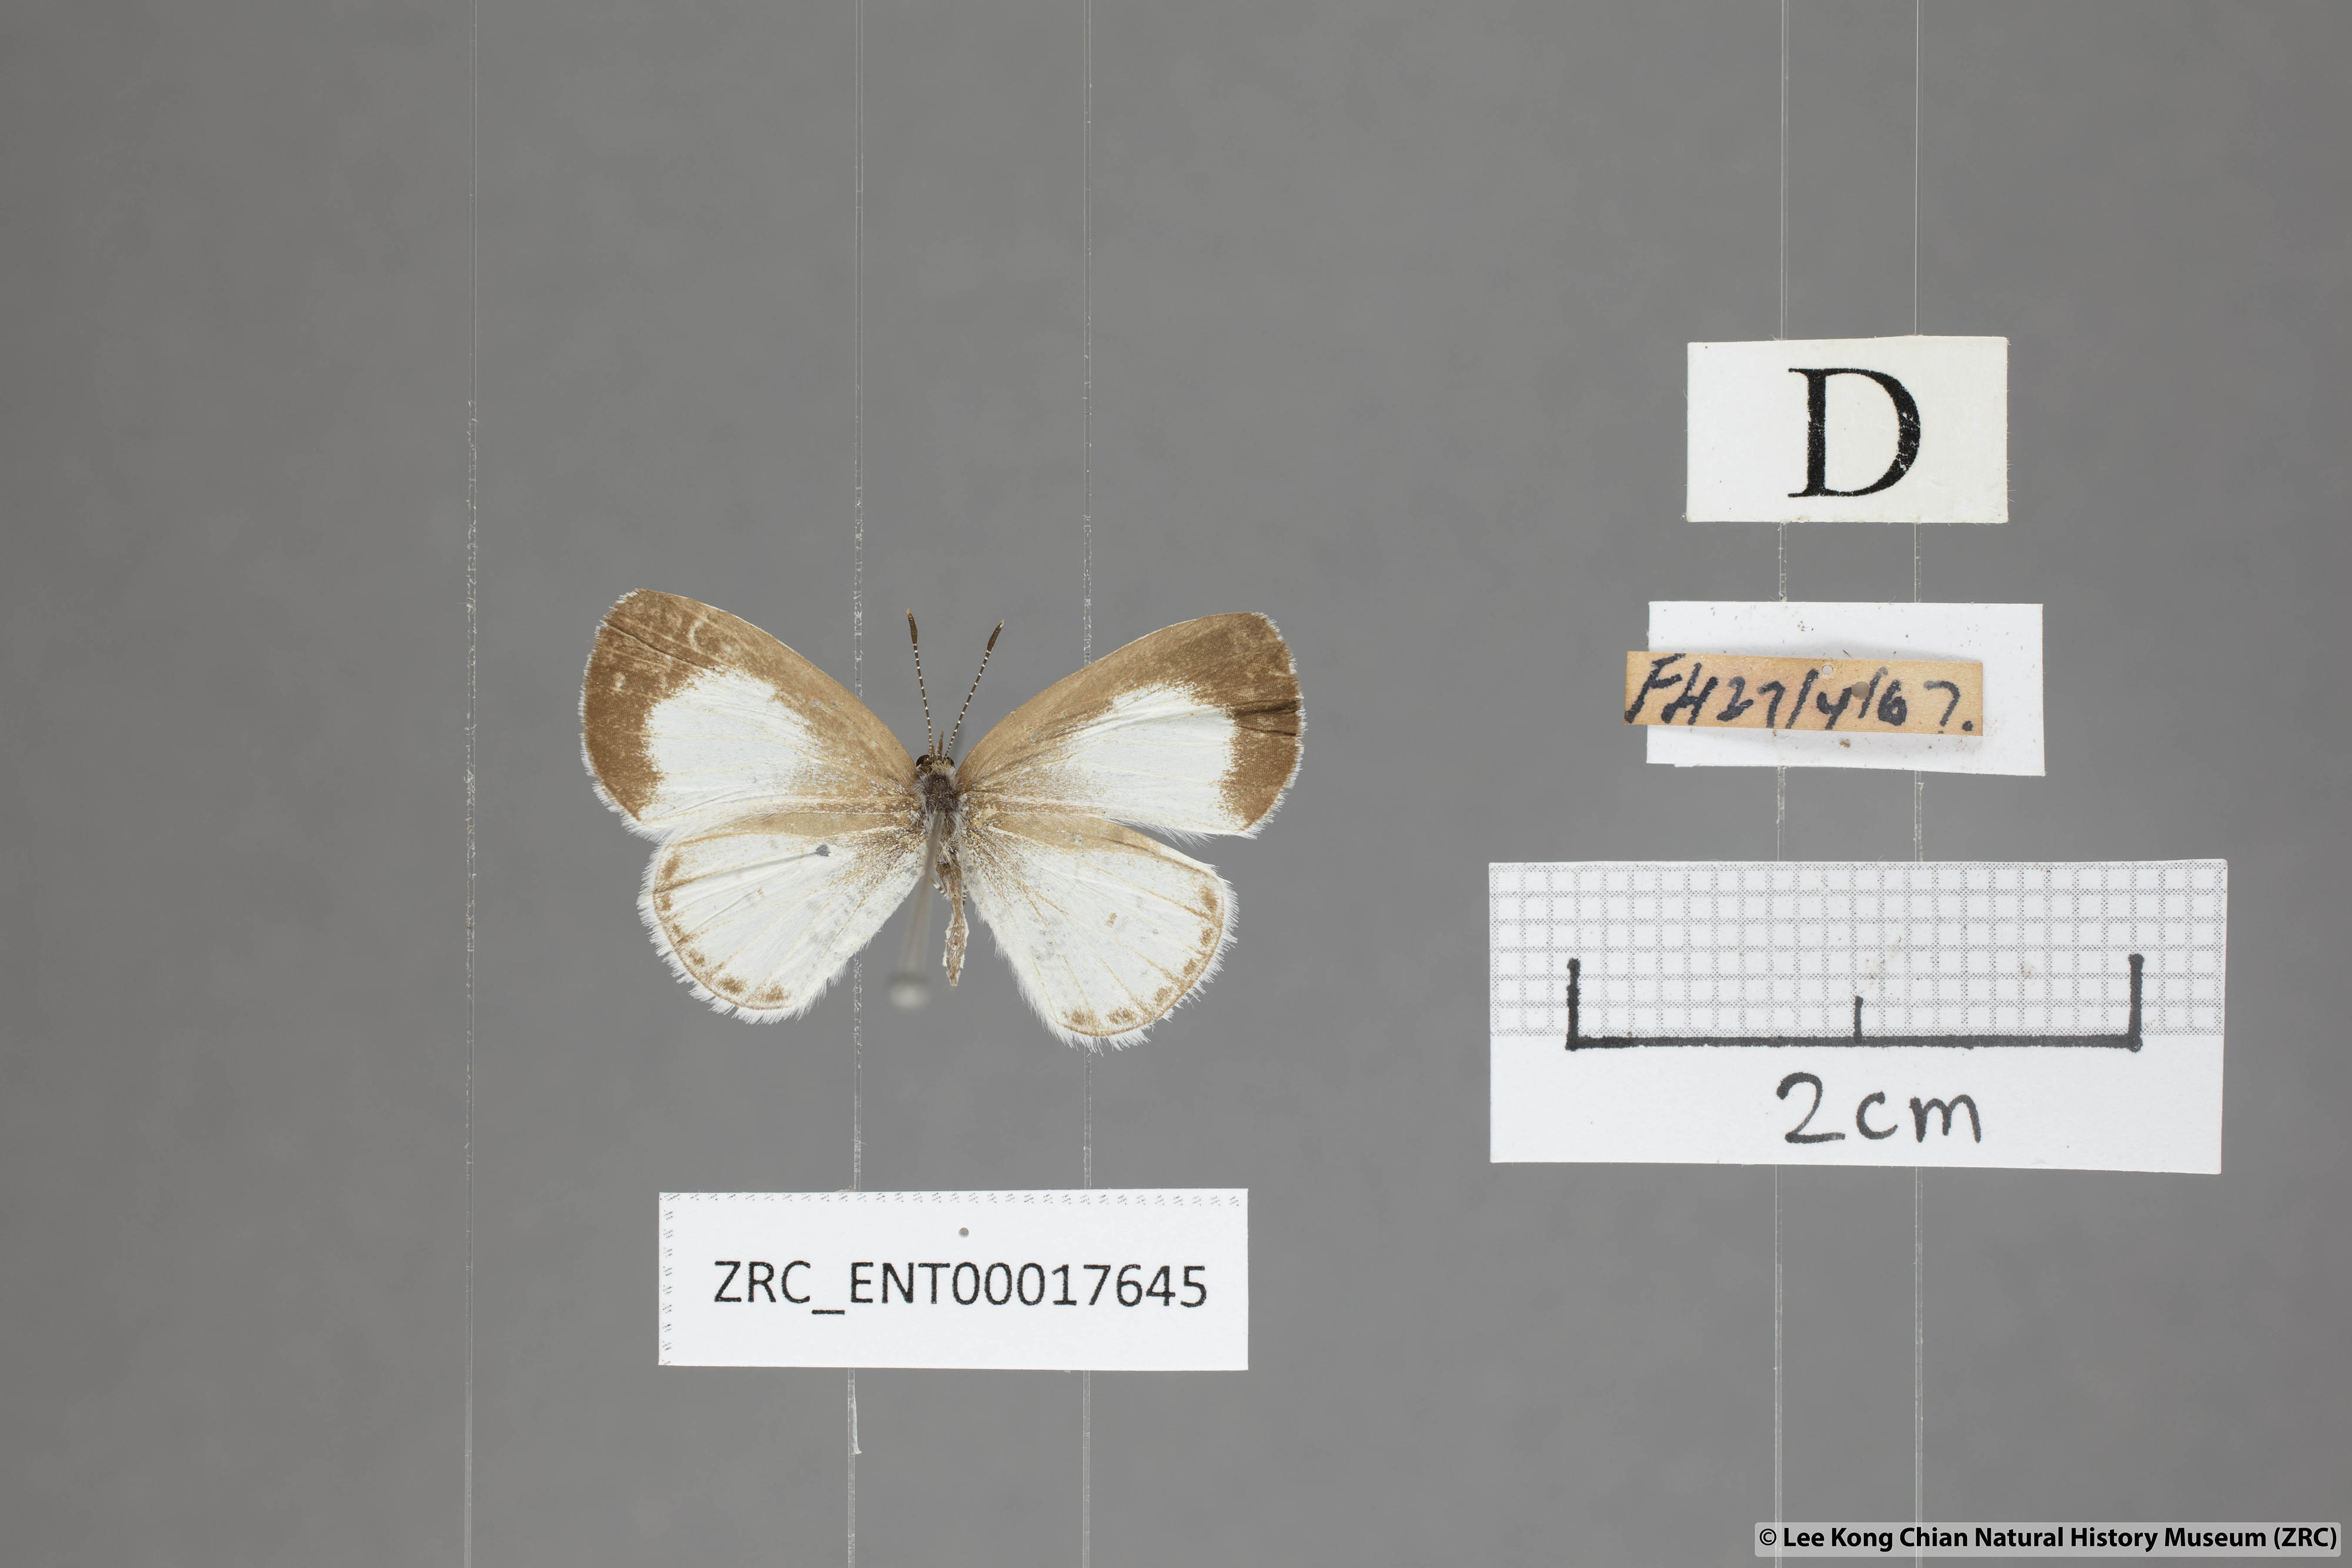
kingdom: Animalia
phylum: Arthropoda
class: Insecta
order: Lepidoptera
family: Lycaenidae
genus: Udara
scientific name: Udara akasa
